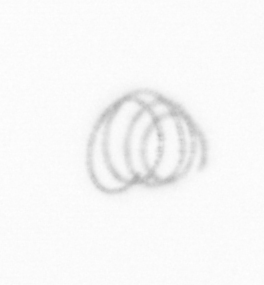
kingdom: Chromista
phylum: Ochrophyta
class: Bacillariophyceae
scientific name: Bacillariophyceae
